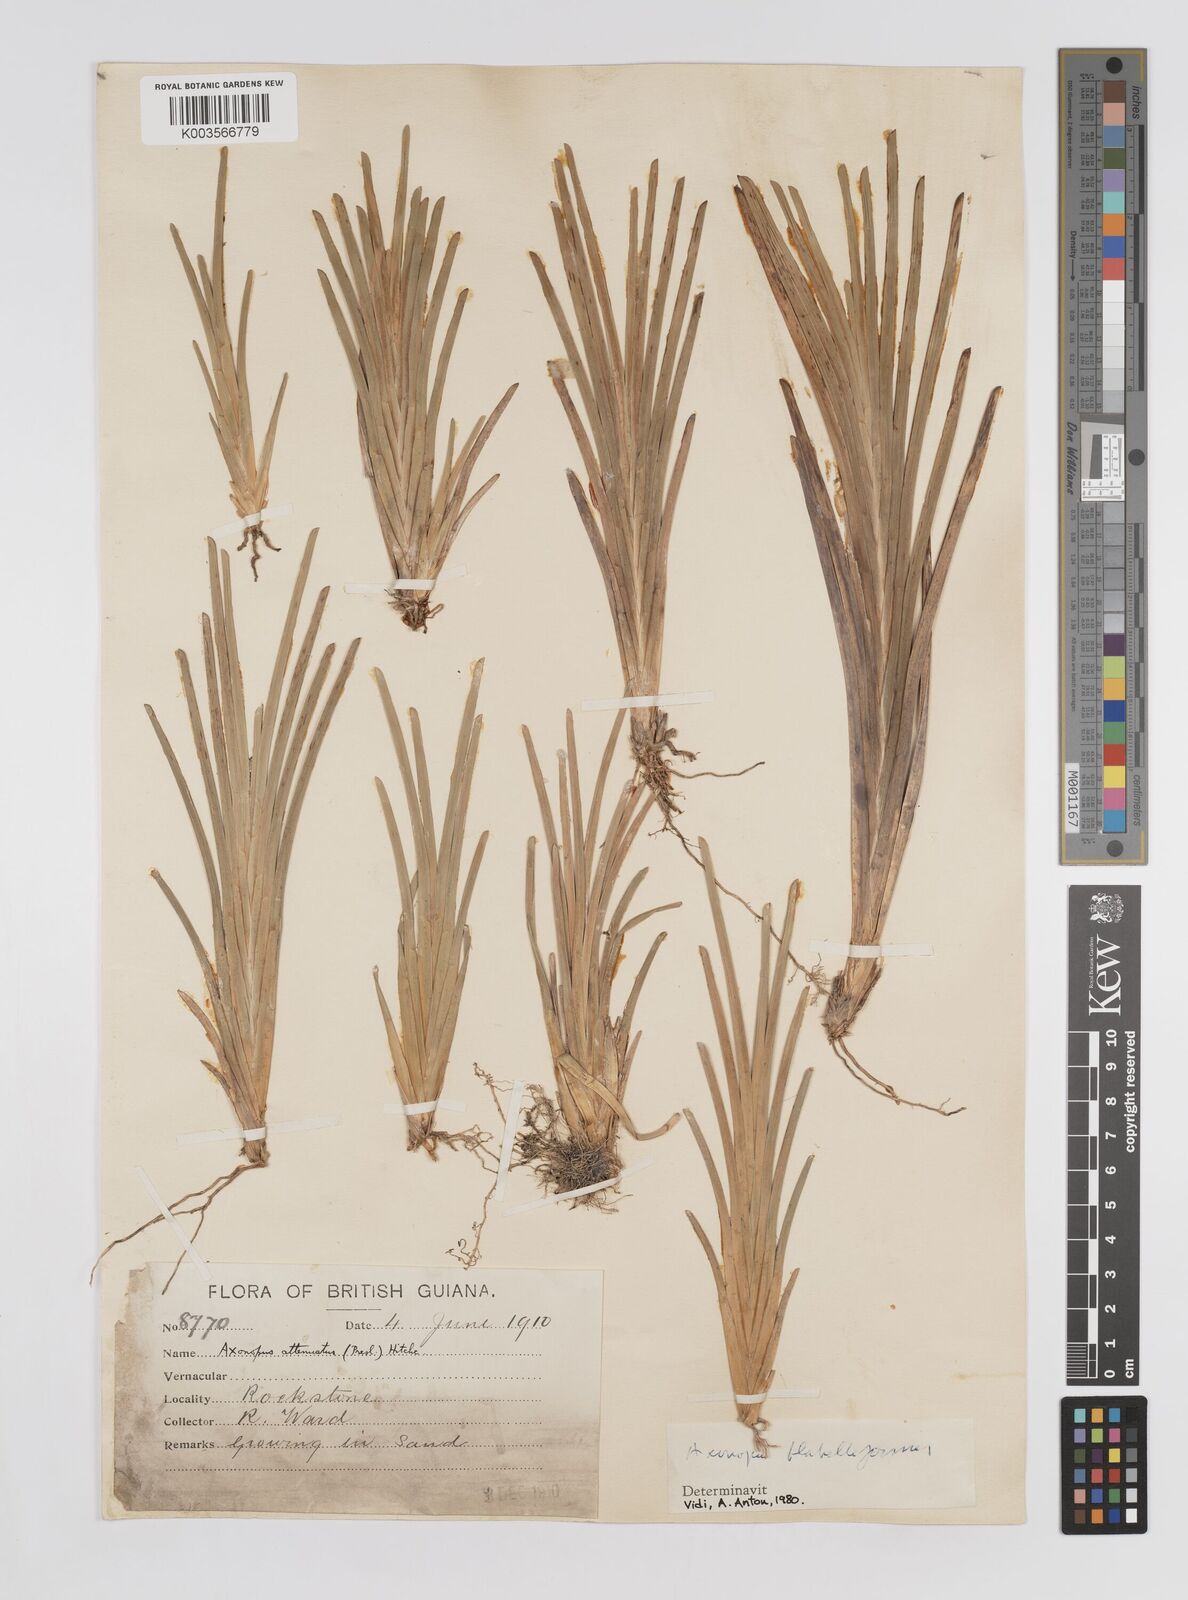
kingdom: Plantae
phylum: Tracheophyta
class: Liliopsida
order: Poales
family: Poaceae
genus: Axonopus
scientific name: Axonopus flabelliformis
